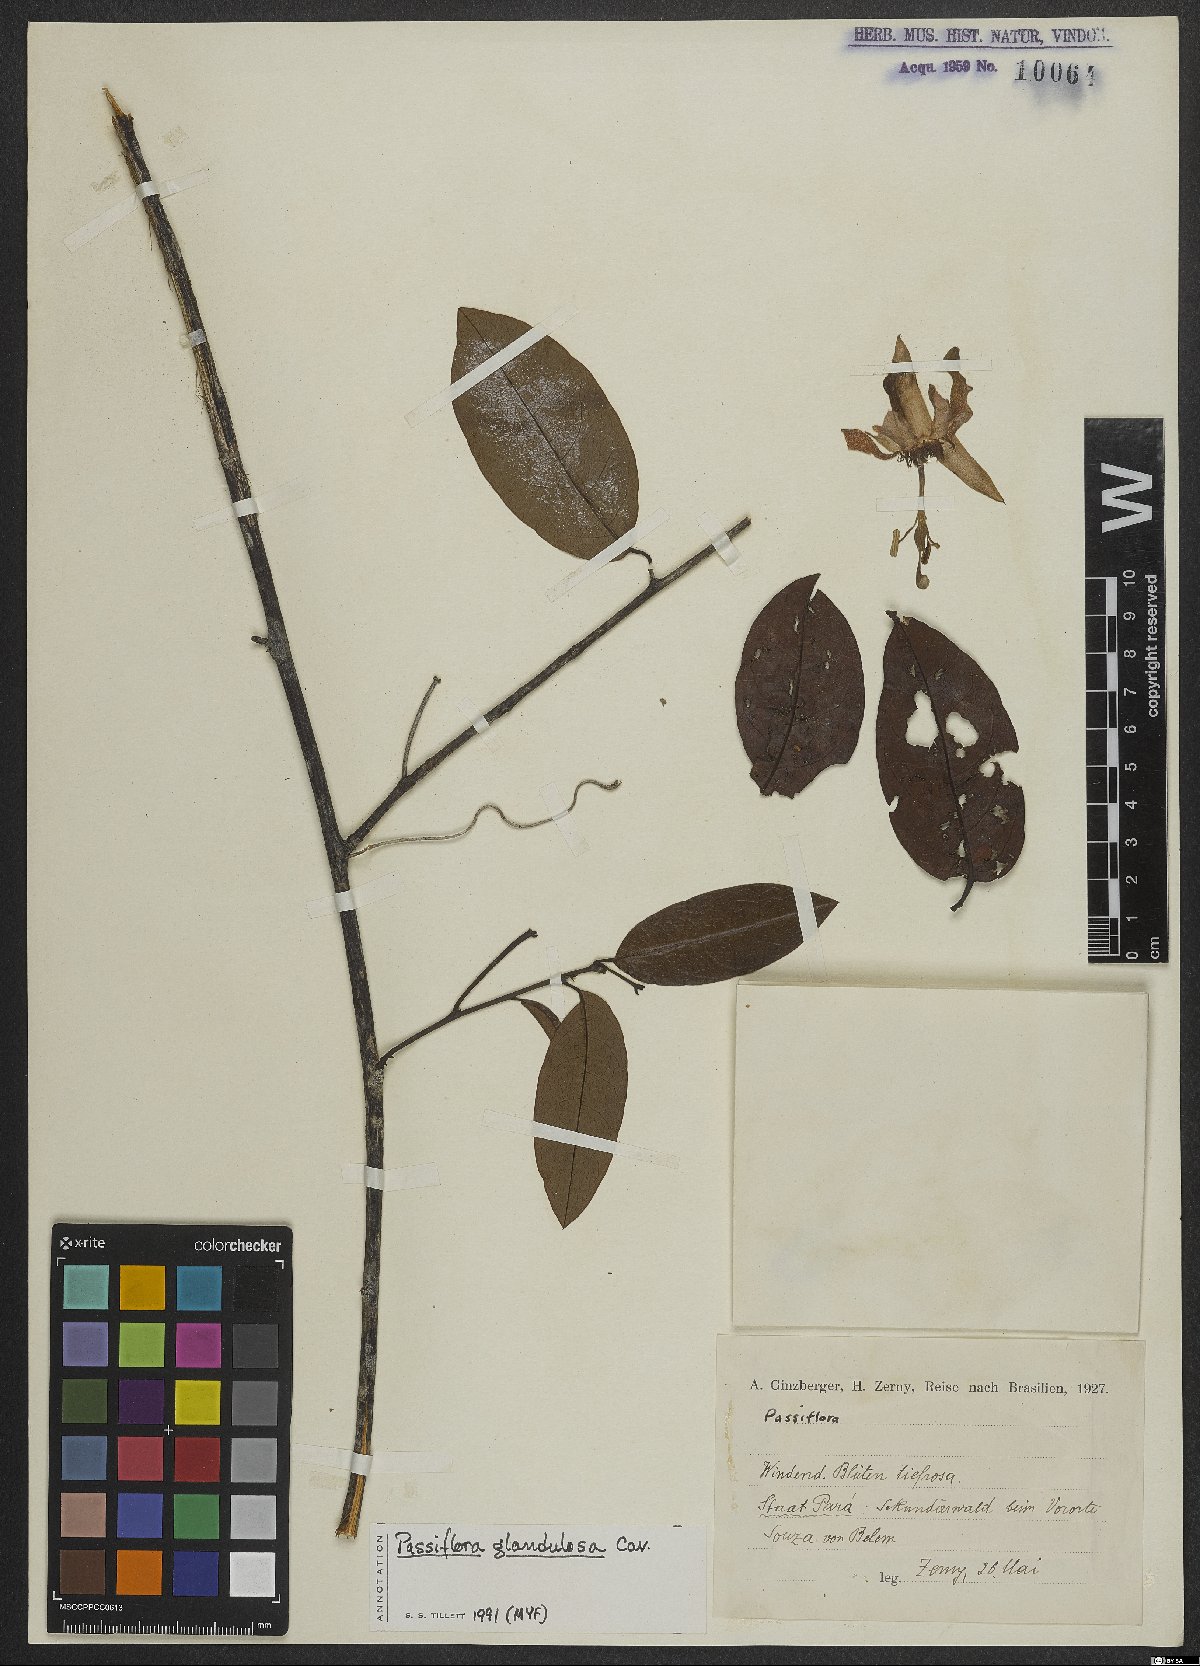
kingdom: Plantae
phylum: Tracheophyta
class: Magnoliopsida
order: Malpighiales
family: Passifloraceae
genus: Passiflora
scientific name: Passiflora glandulosa
